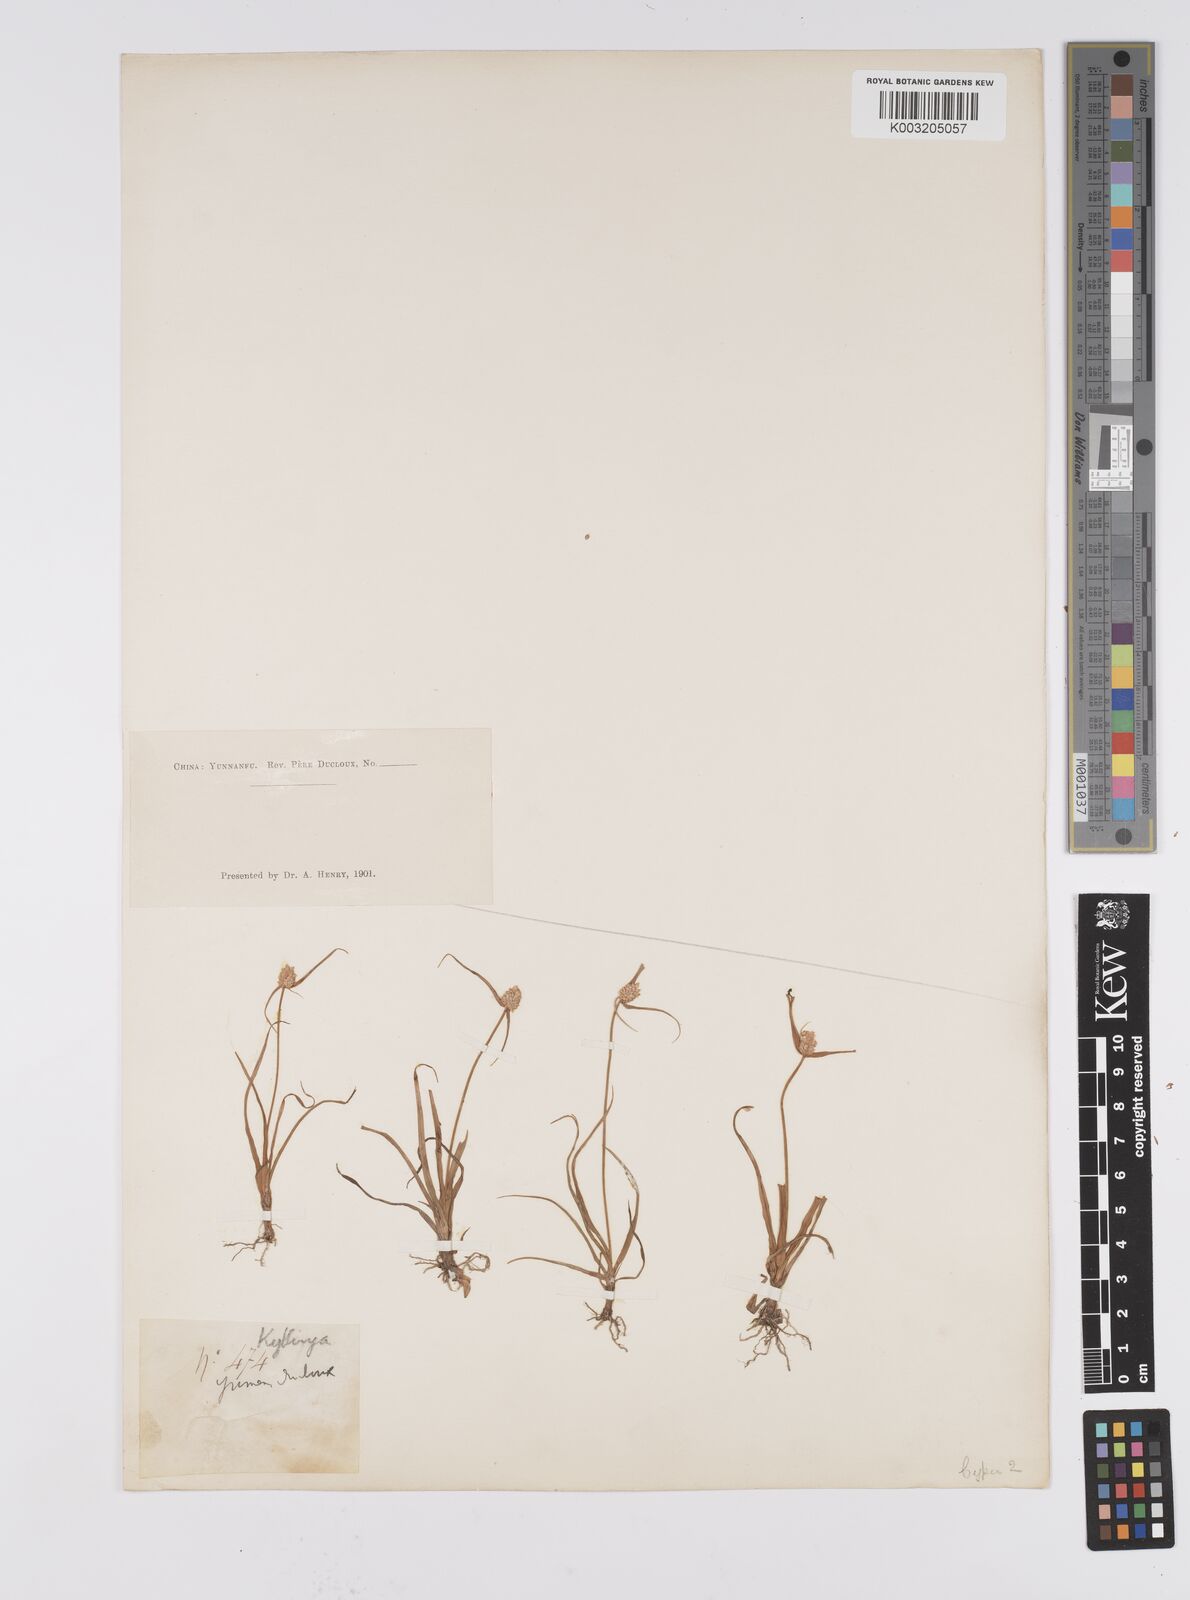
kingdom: Plantae
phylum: Tracheophyta
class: Liliopsida
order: Poales
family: Cyperaceae
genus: Cyperus
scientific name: Cyperus
